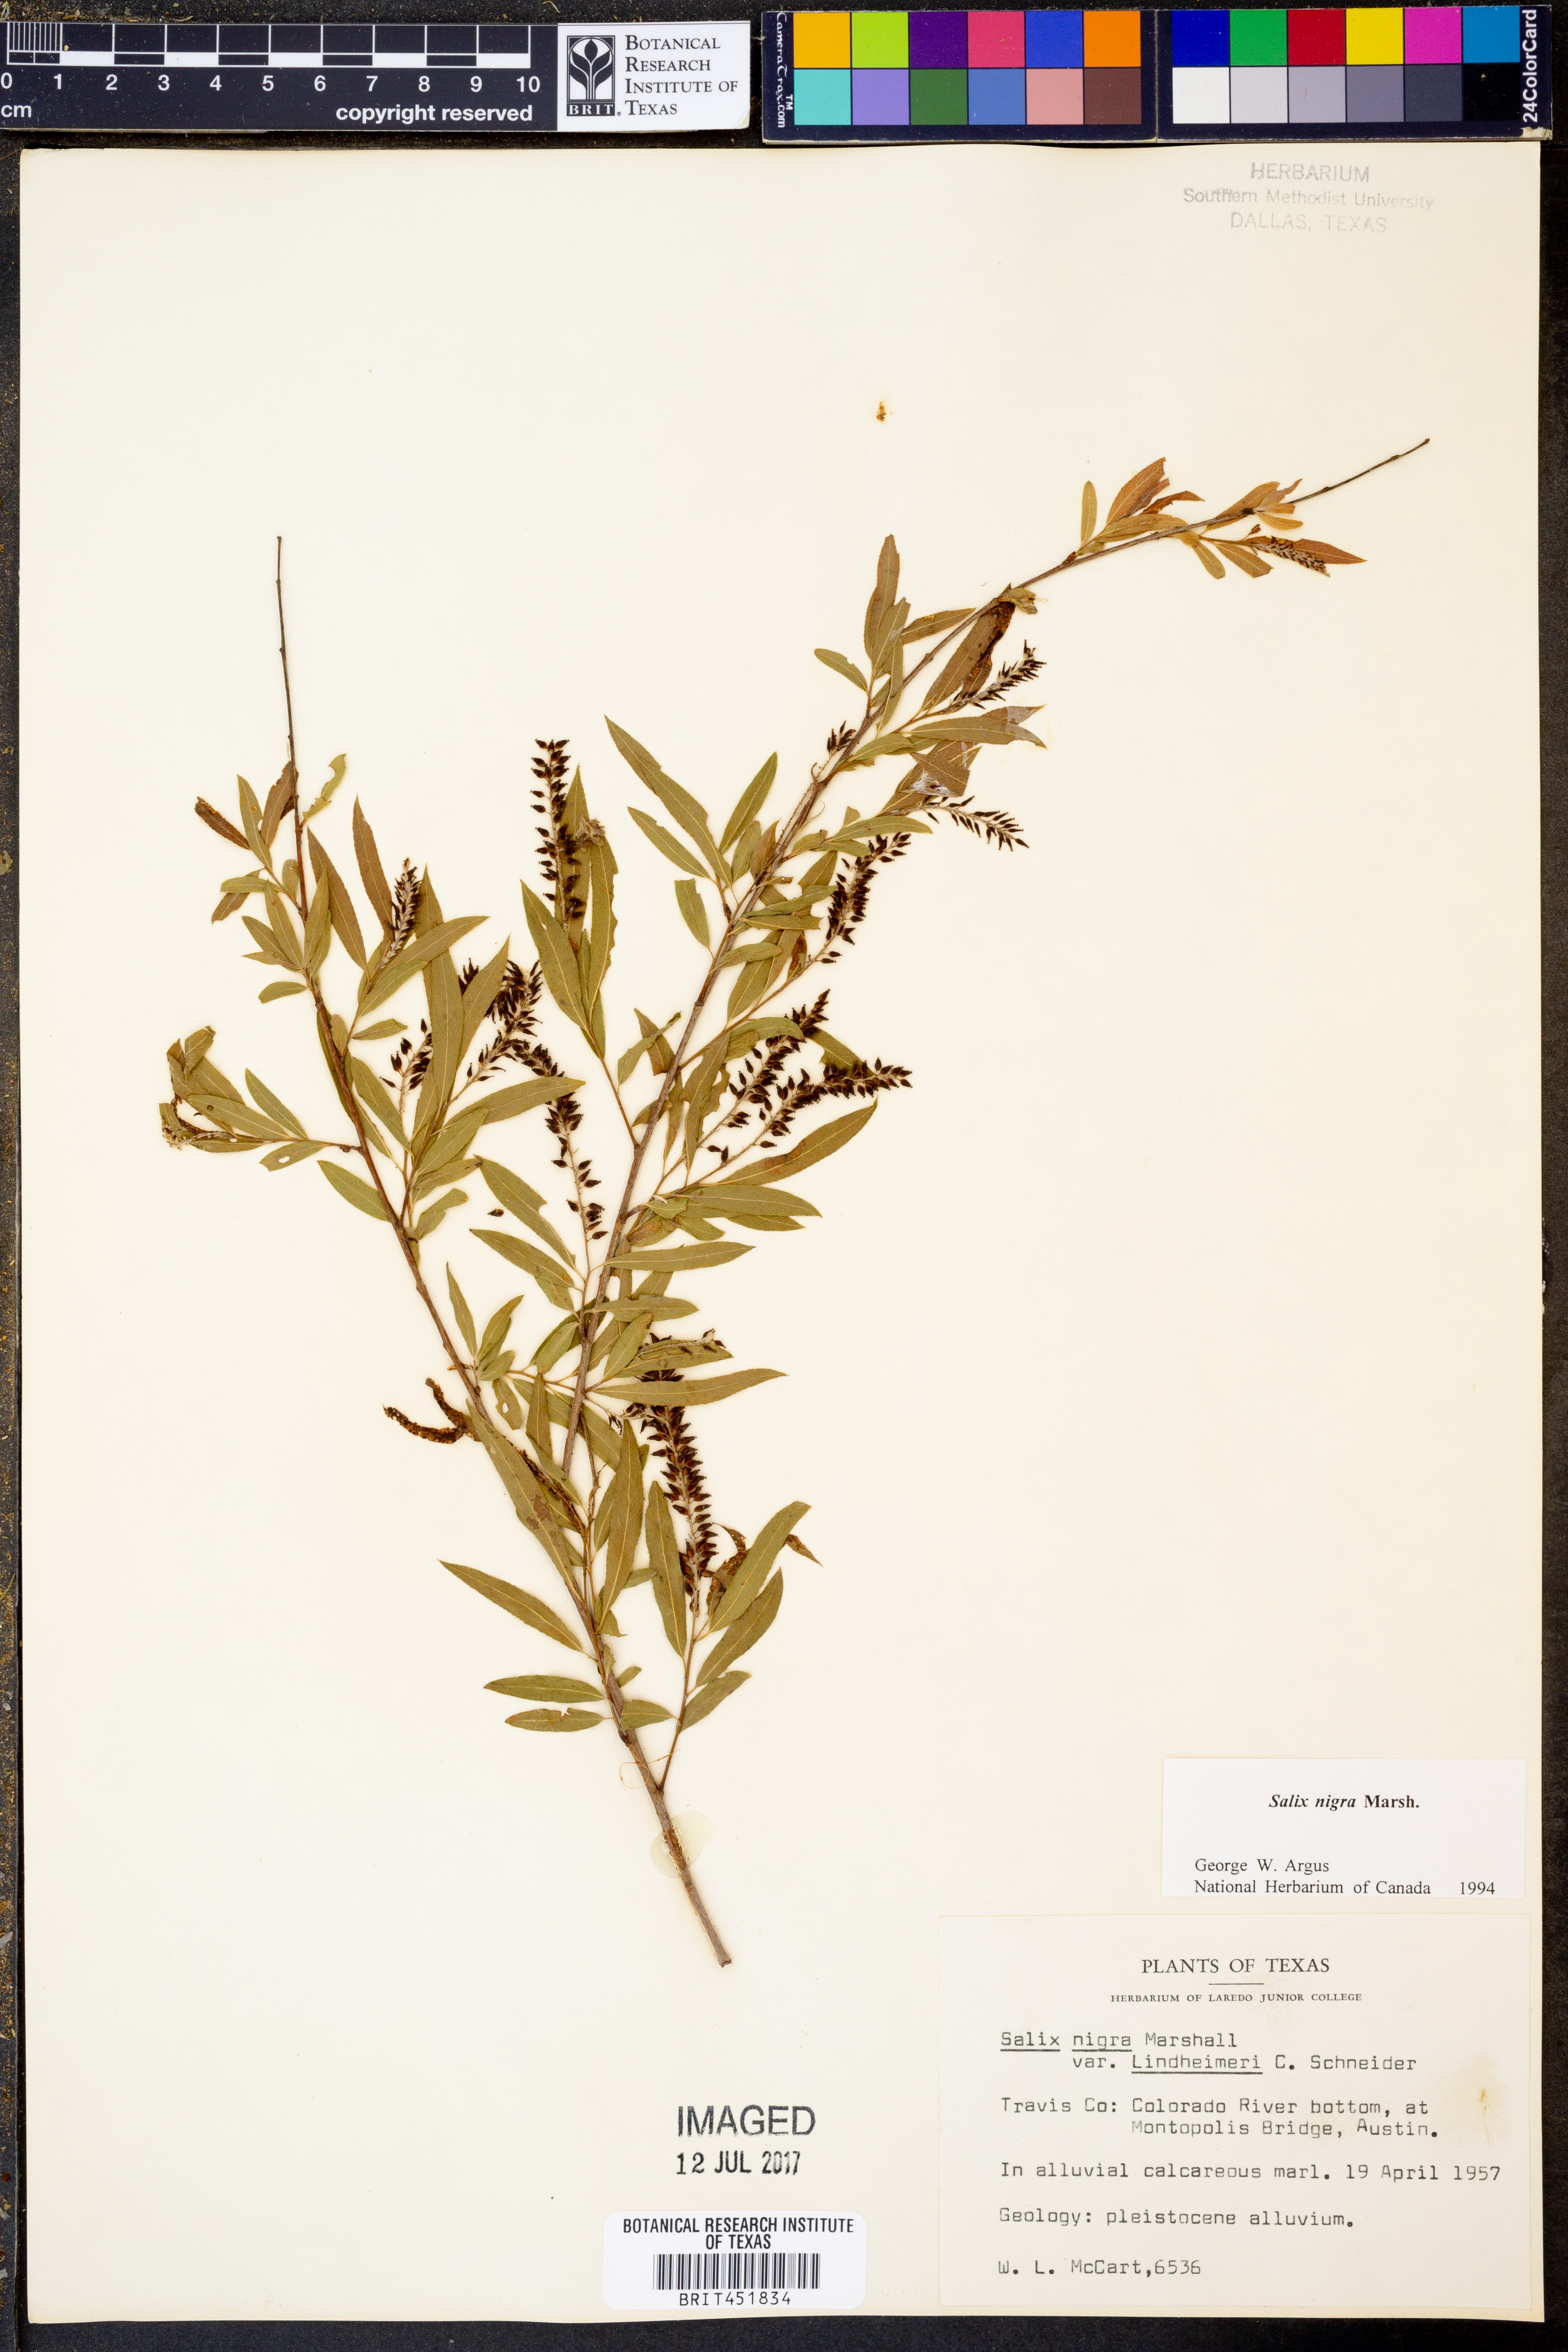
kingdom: Plantae
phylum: Tracheophyta
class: Magnoliopsida
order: Malpighiales
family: Salicaceae
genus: Salix
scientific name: Salix nigra
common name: Black willow
